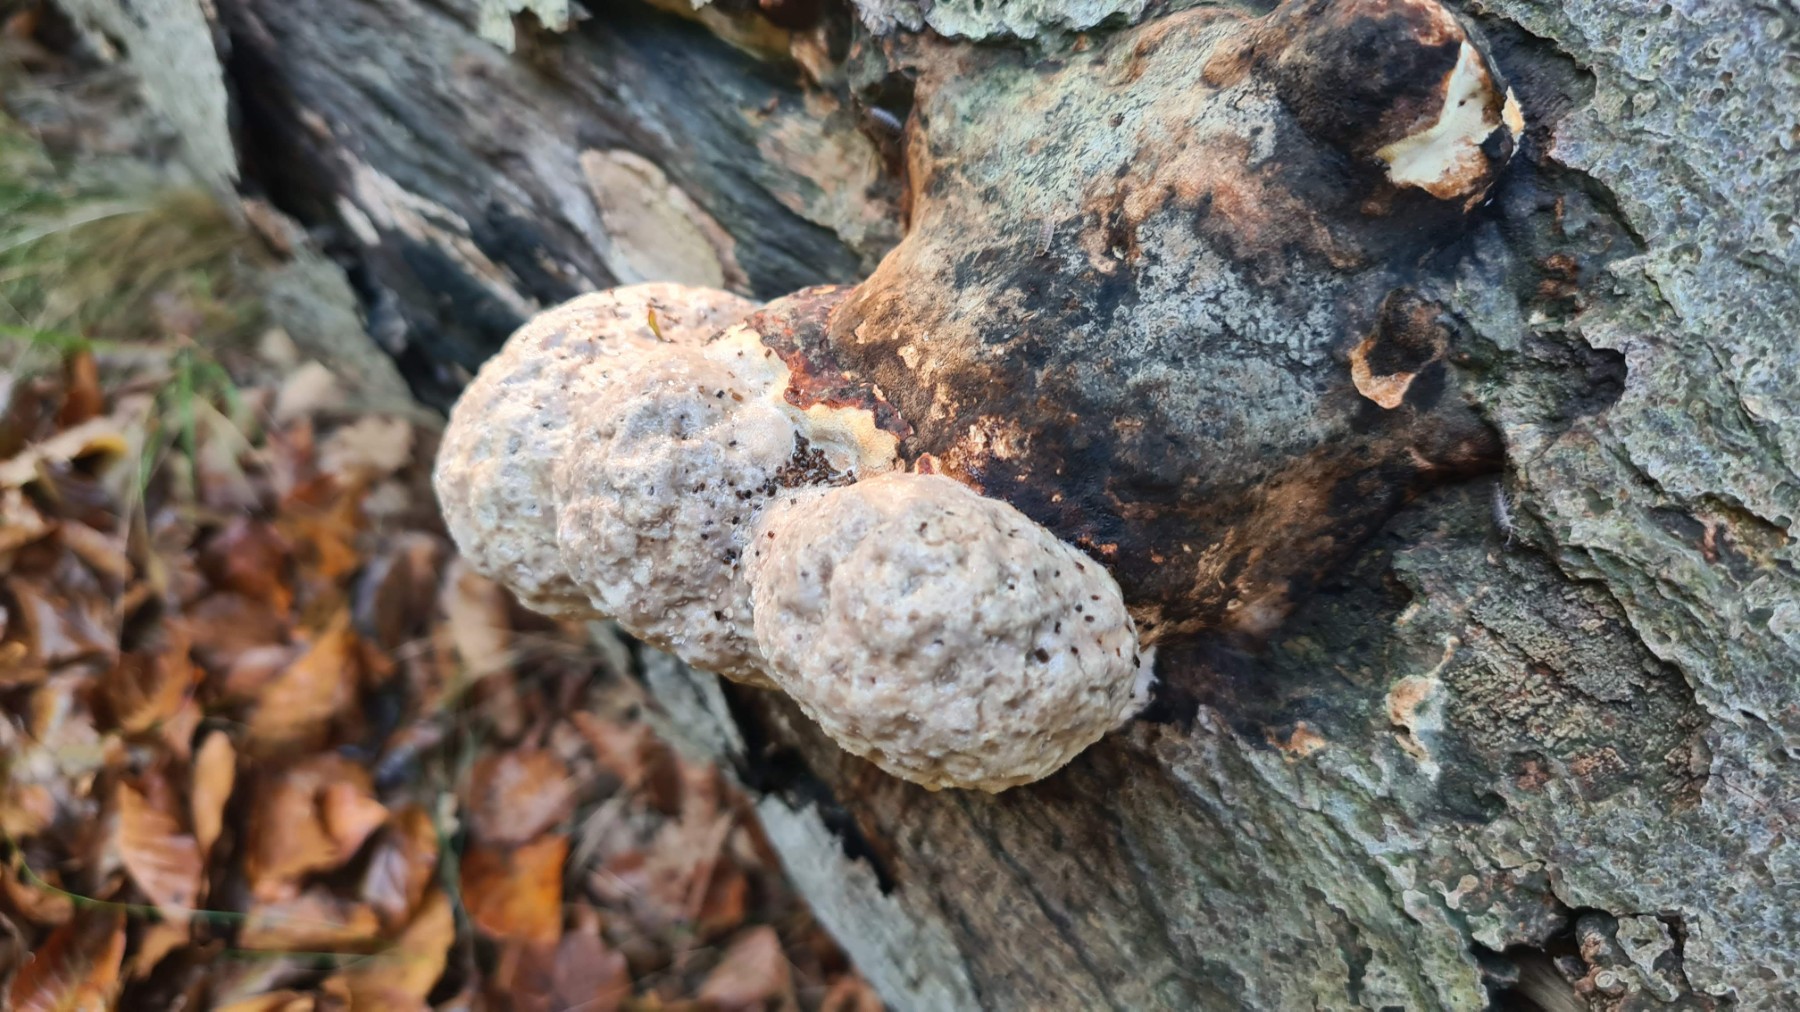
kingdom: Fungi
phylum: Basidiomycota
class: Agaricomycetes
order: Polyporales
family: Fomitopsidaceae
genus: Fomitopsis
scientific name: Fomitopsis pinicola
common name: randbæltet hovporesvamp
